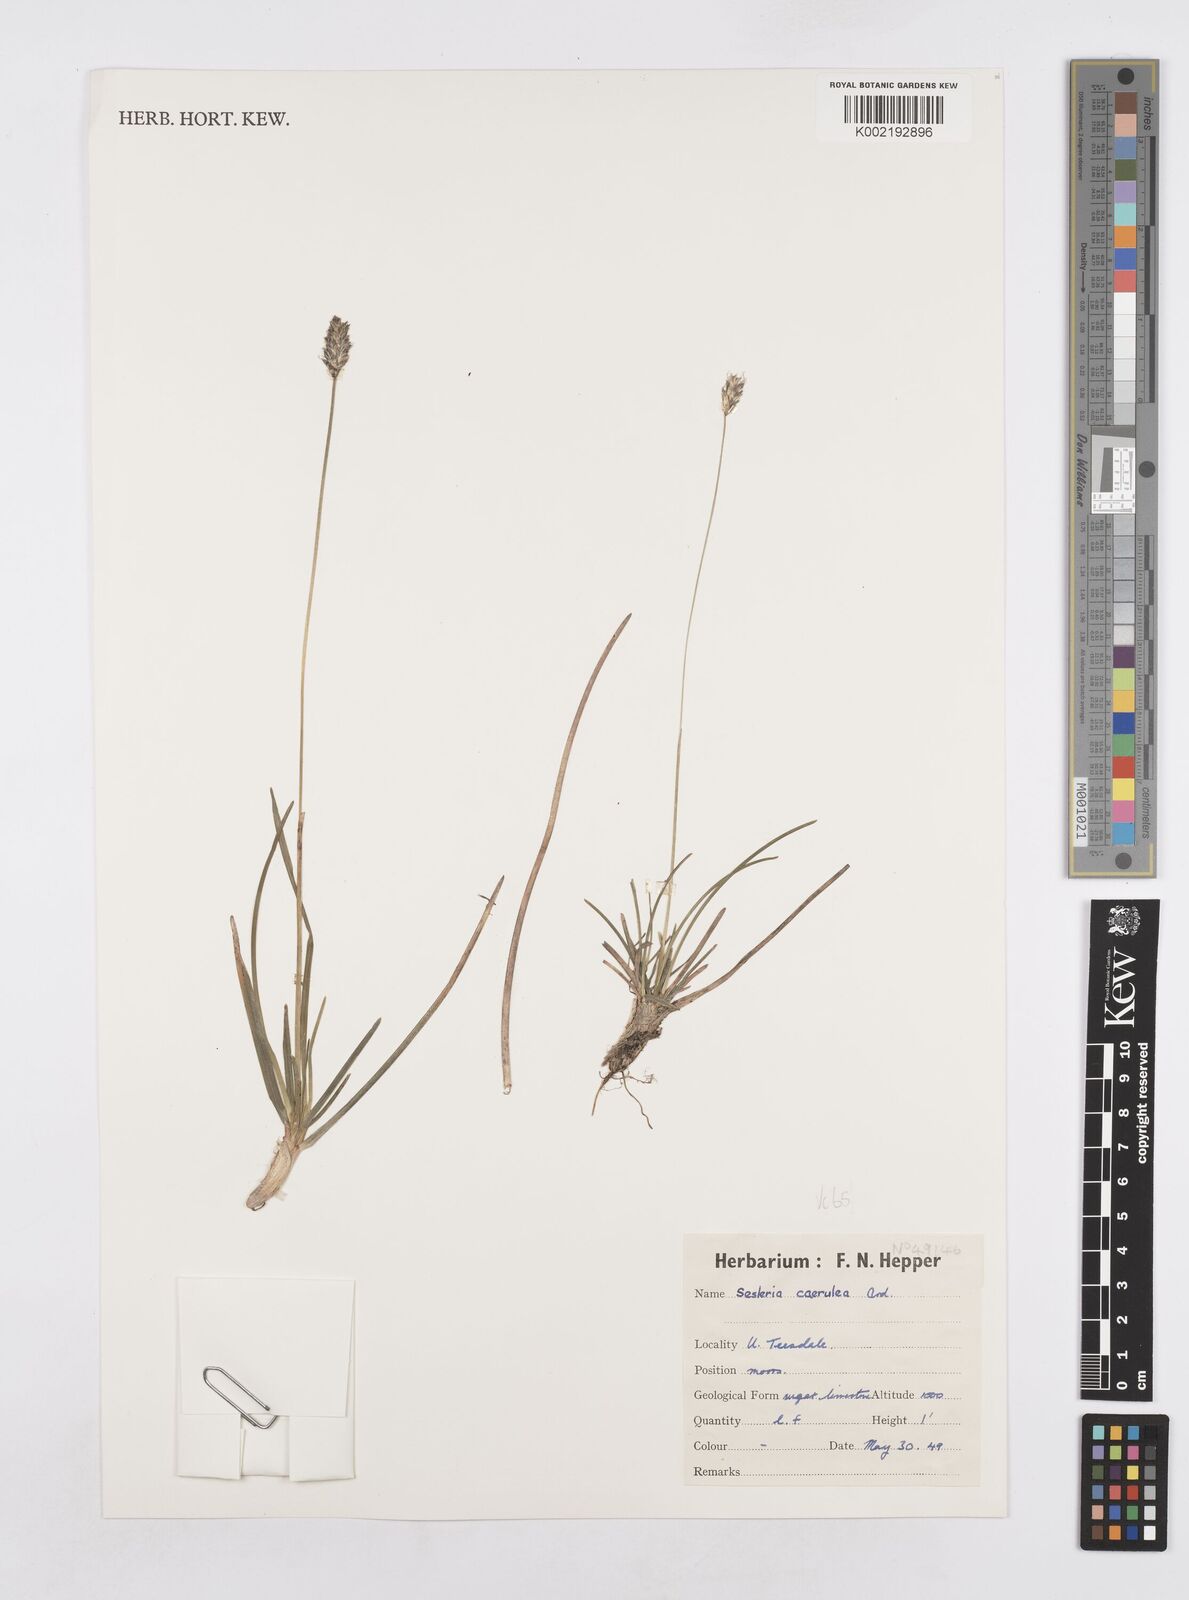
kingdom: Plantae
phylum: Tracheophyta
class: Liliopsida
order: Poales
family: Poaceae
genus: Sesleria
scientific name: Sesleria caerulea
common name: Blue moor-grass
